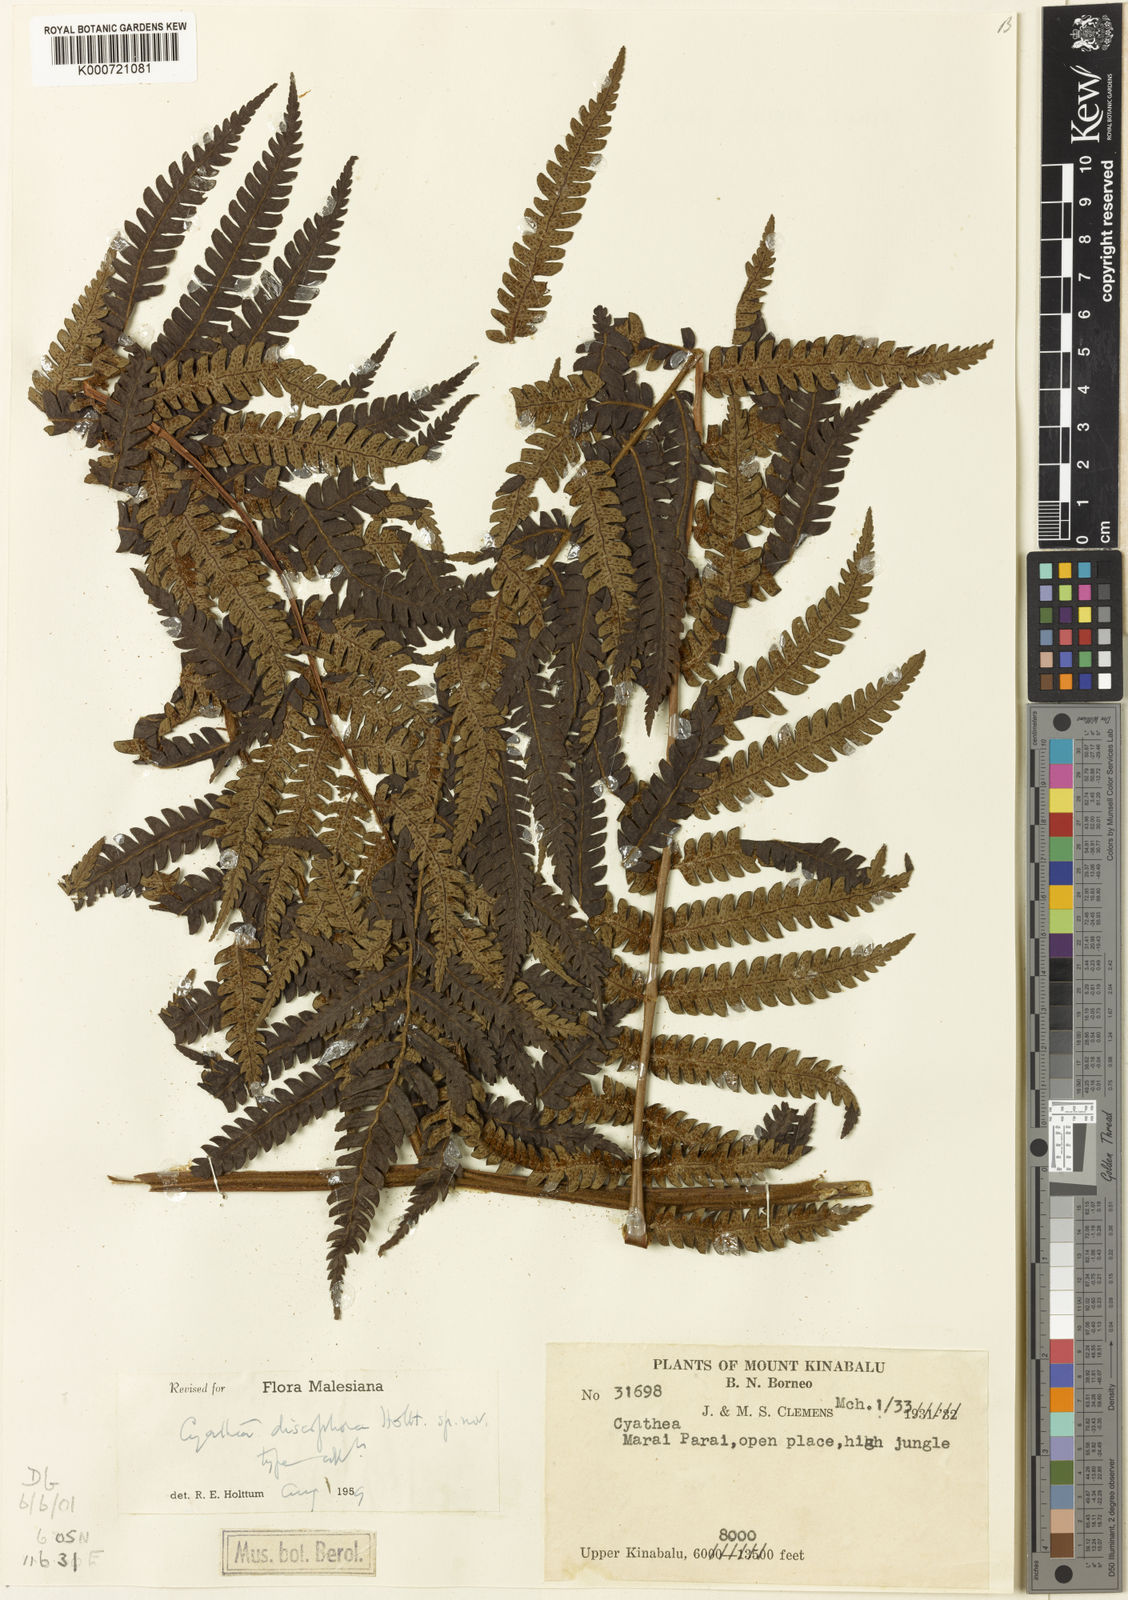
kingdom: Plantae
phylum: Tracheophyta
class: Polypodiopsida
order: Cyatheales
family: Cyatheaceae
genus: Sphaeropteris
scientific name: Sphaeropteris discophora
